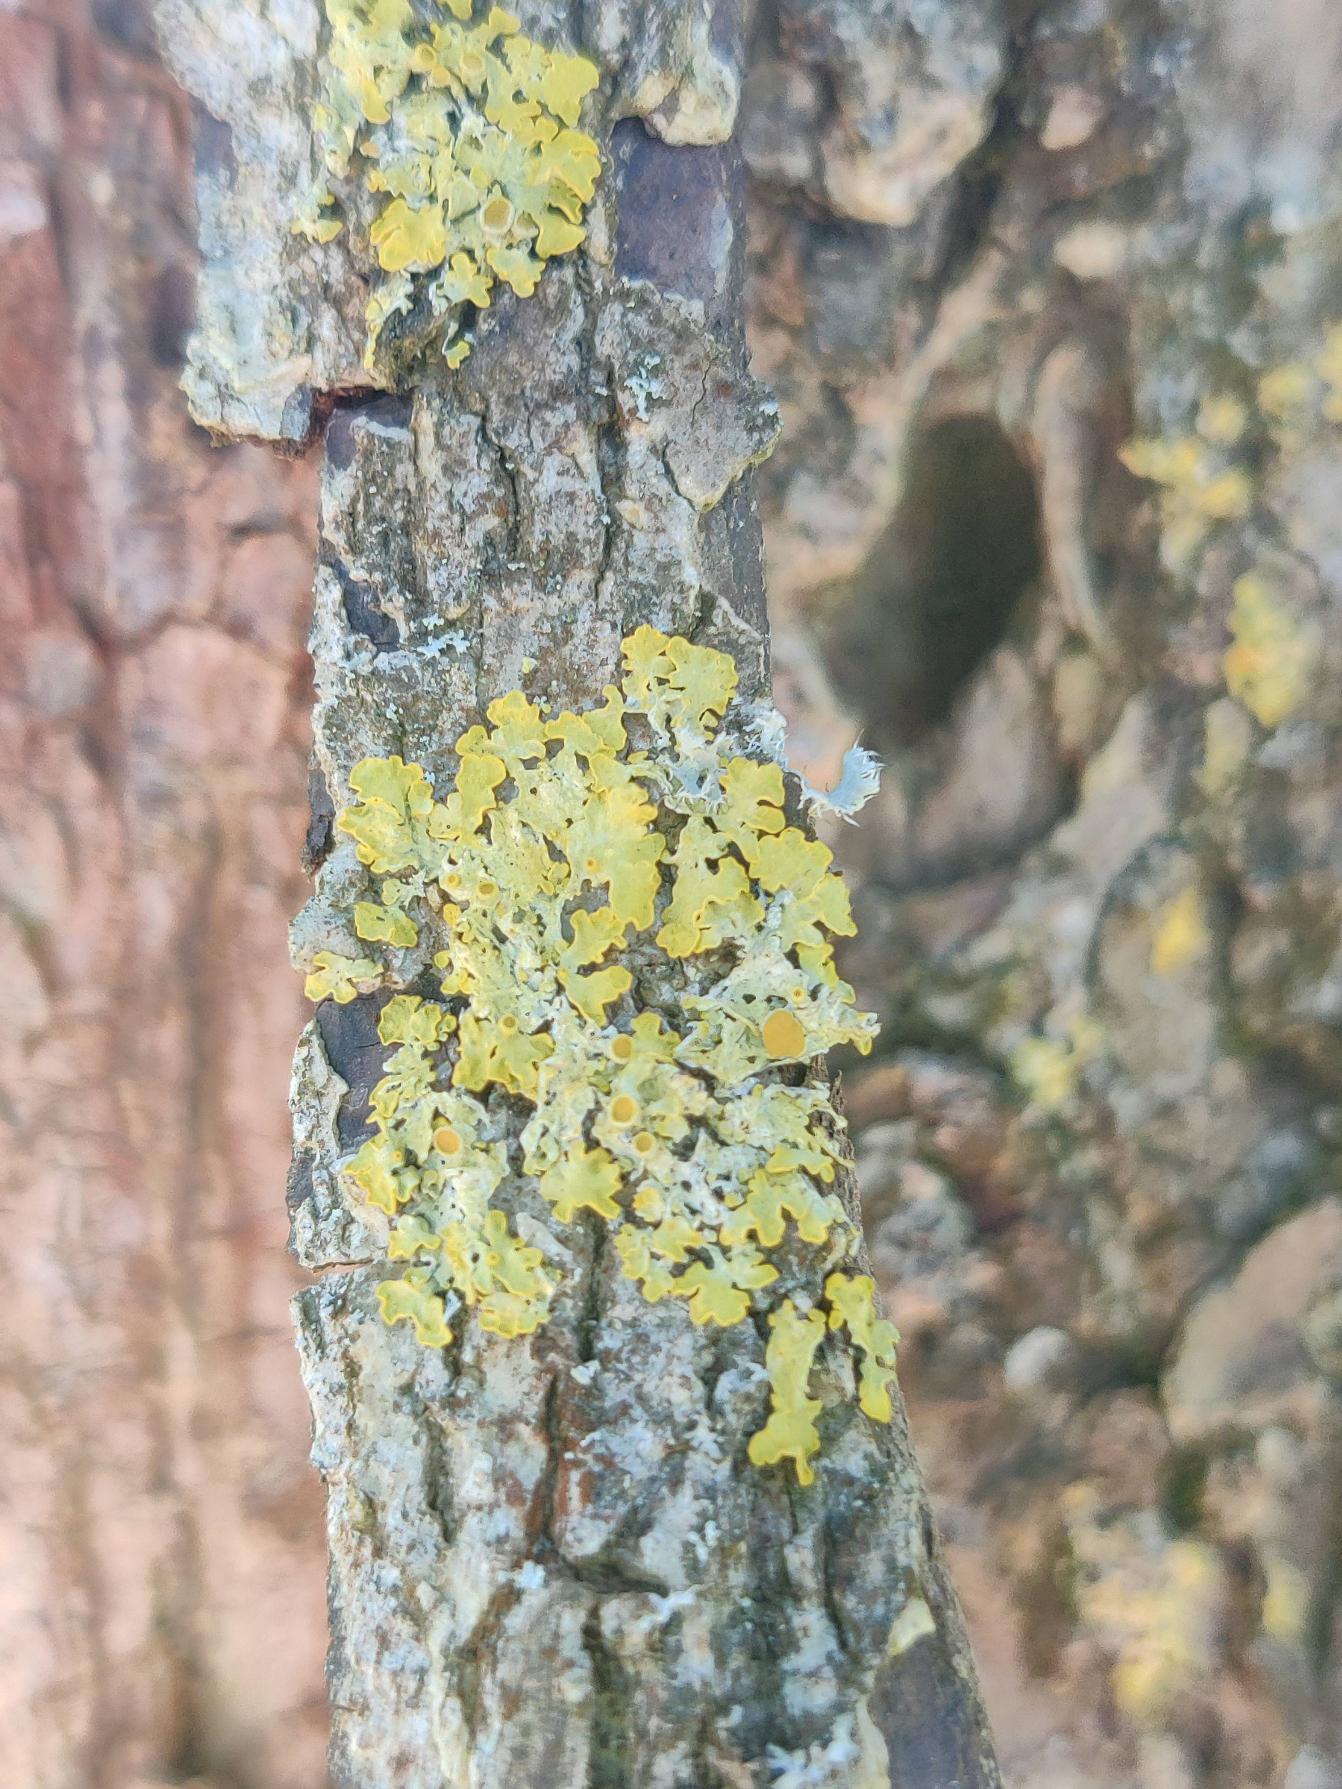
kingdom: Fungi
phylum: Ascomycota
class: Lecanoromycetes
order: Teloschistales
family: Teloschistaceae
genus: Xanthoria
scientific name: Xanthoria parietina
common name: Almindelig væggelav
